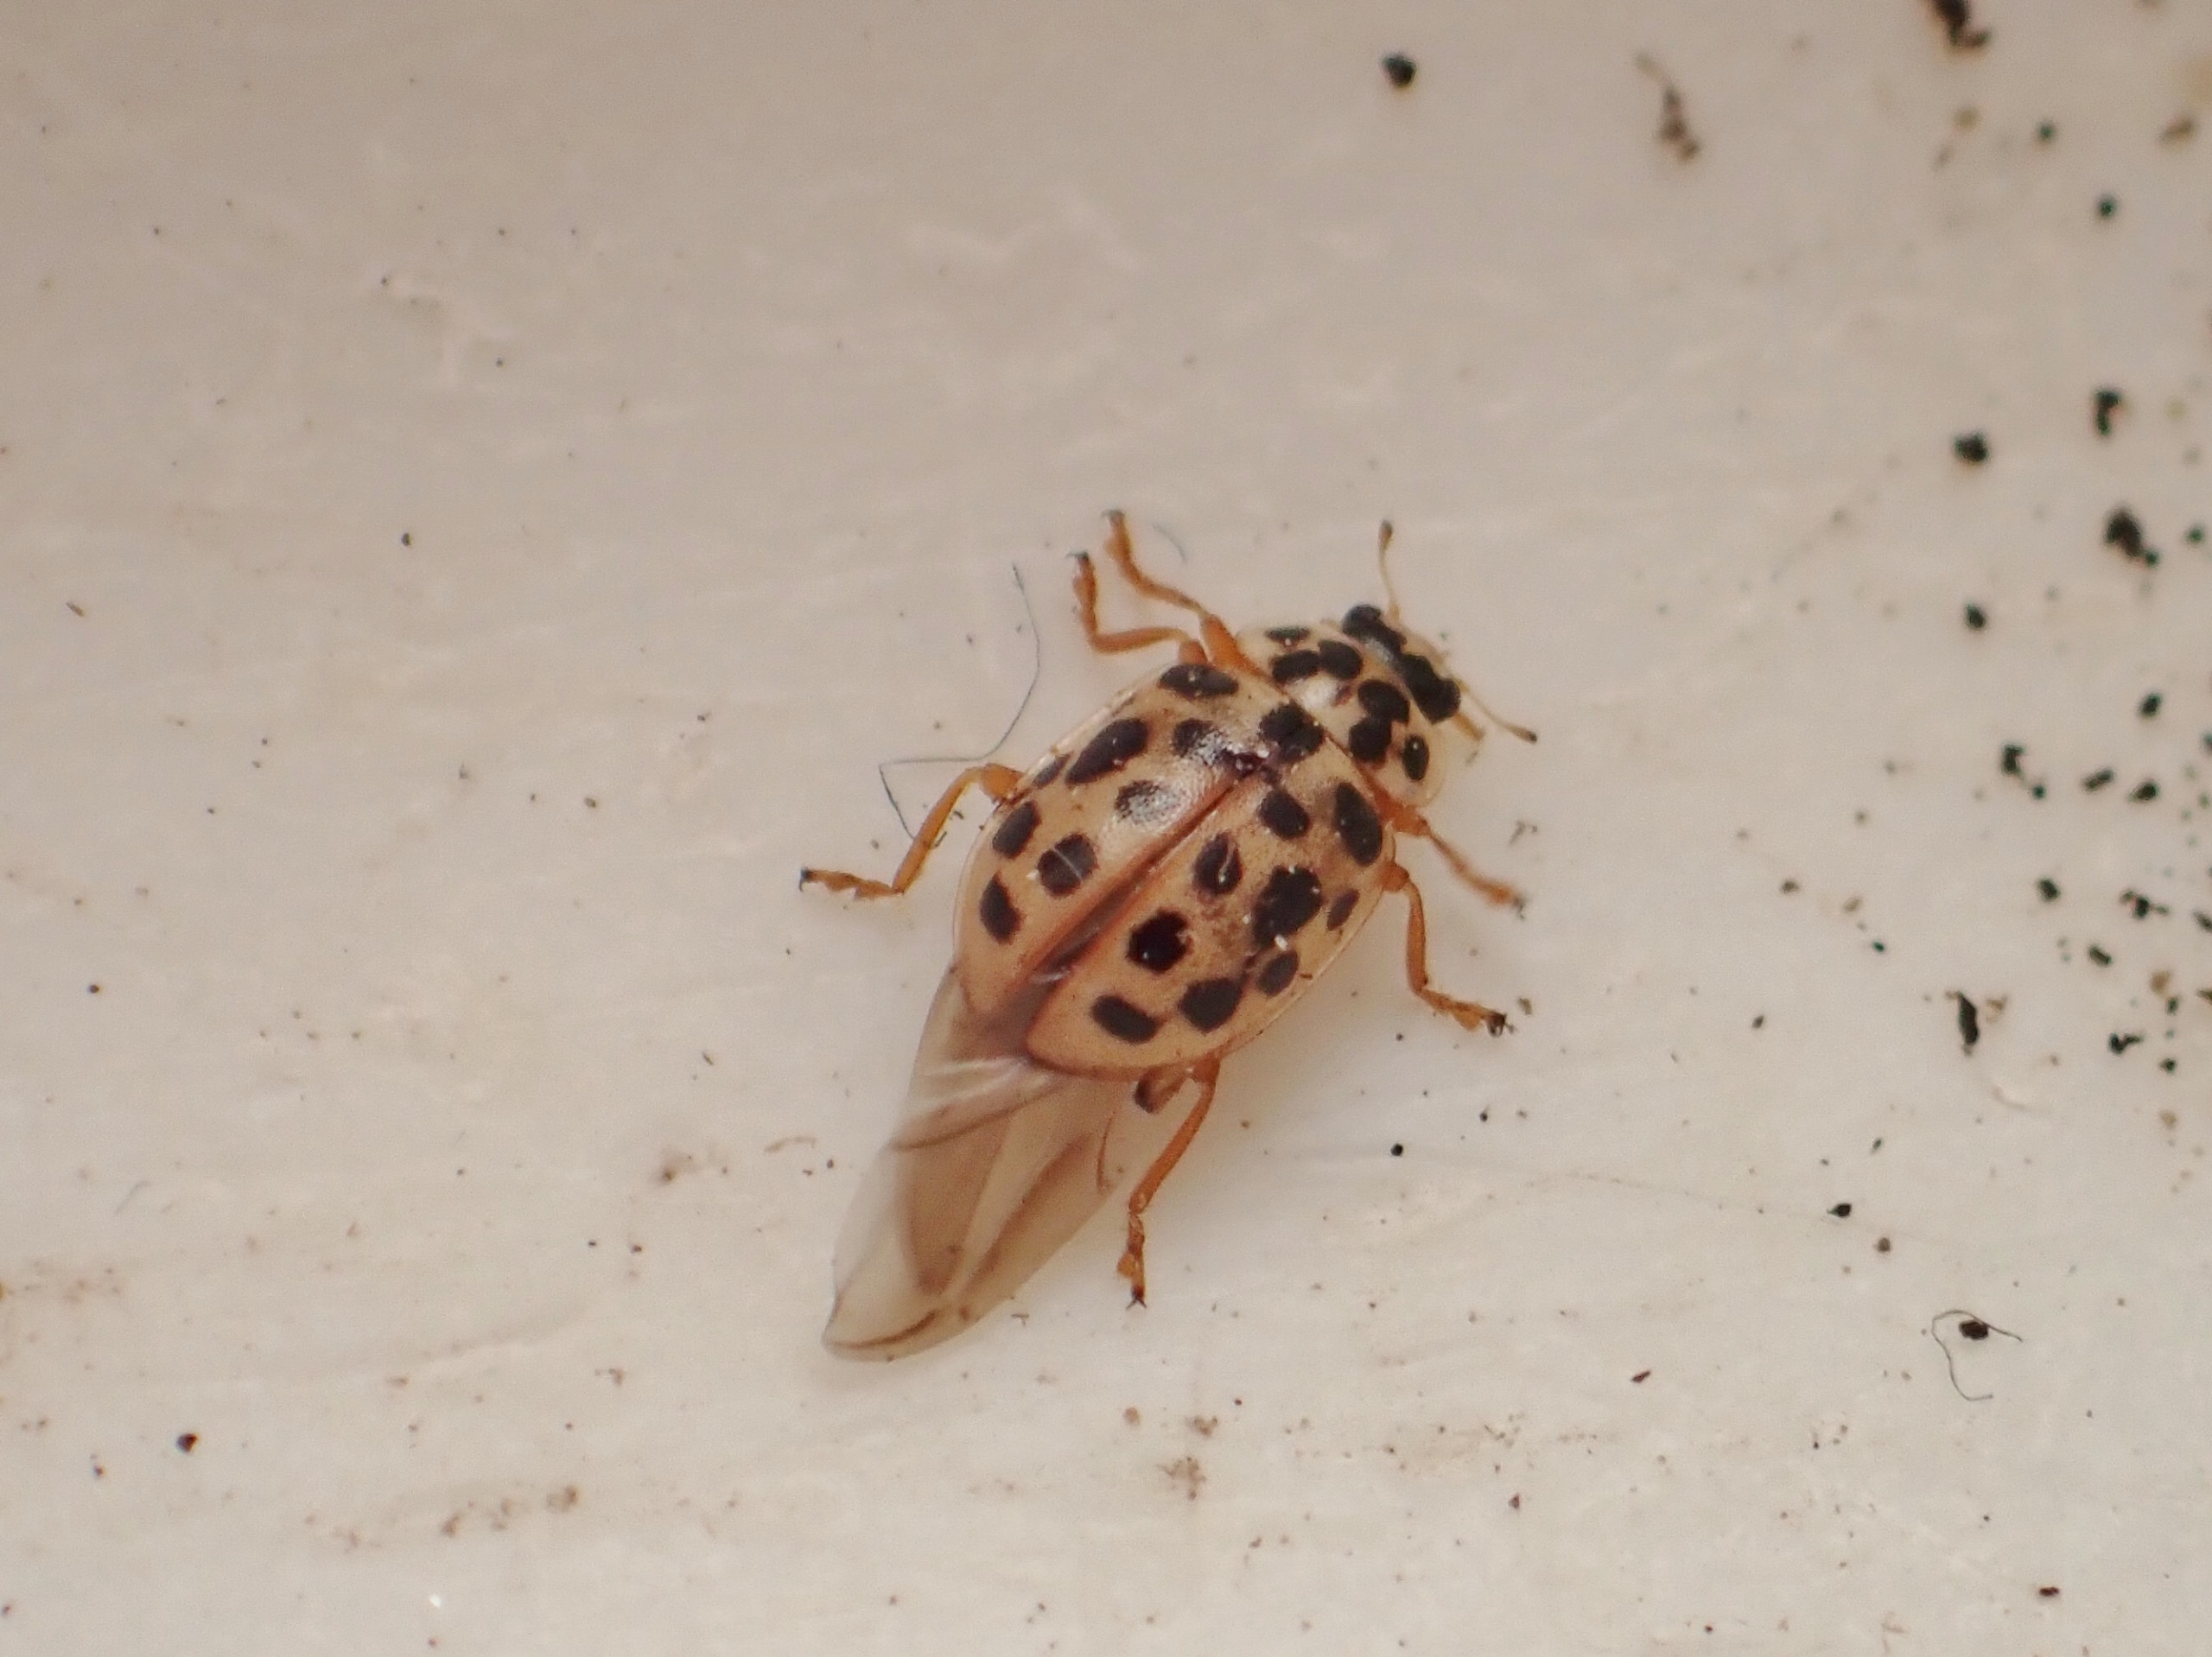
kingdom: Animalia
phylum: Arthropoda
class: Insecta
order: Coleoptera
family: Coccinellidae
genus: Anisosticta
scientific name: Anisosticta novemdecimpunctata
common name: Nittenplettet mariehøne
